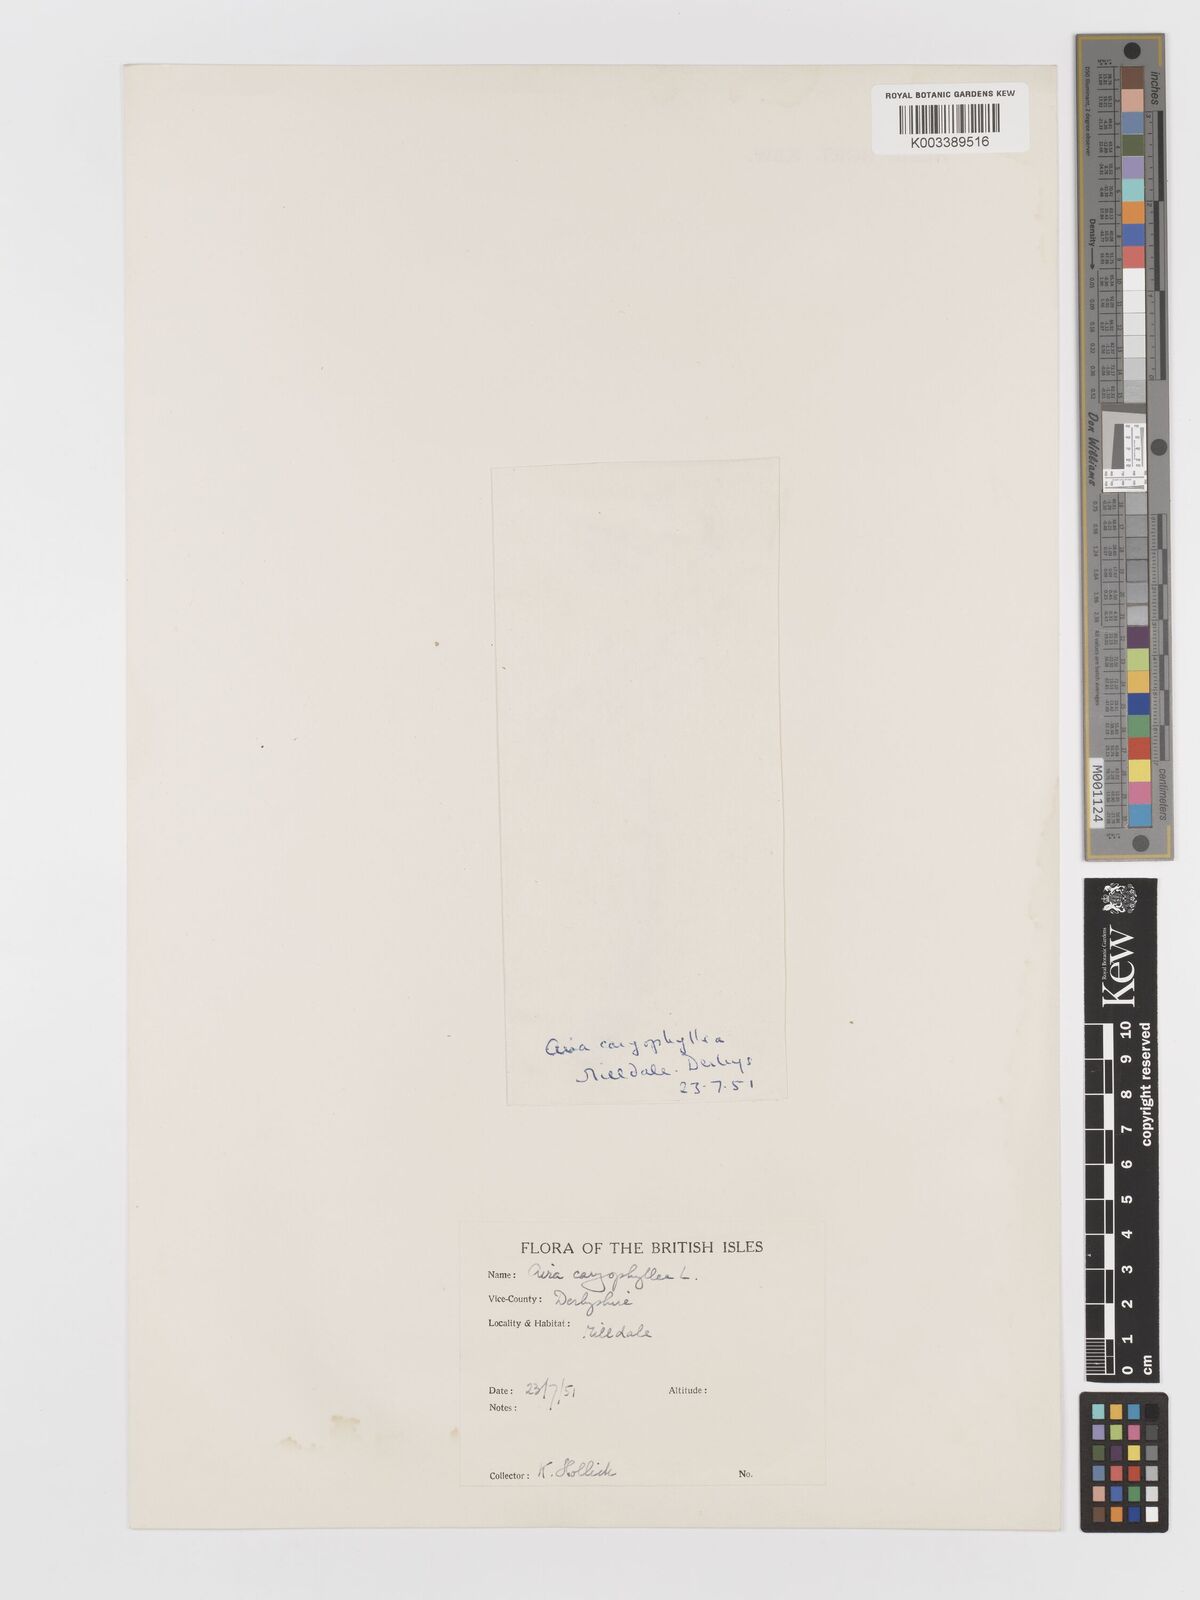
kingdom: Plantae
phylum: Tracheophyta
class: Liliopsida
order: Poales
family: Poaceae
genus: Aira
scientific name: Aira caryophyllea
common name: Silver hairgrass
